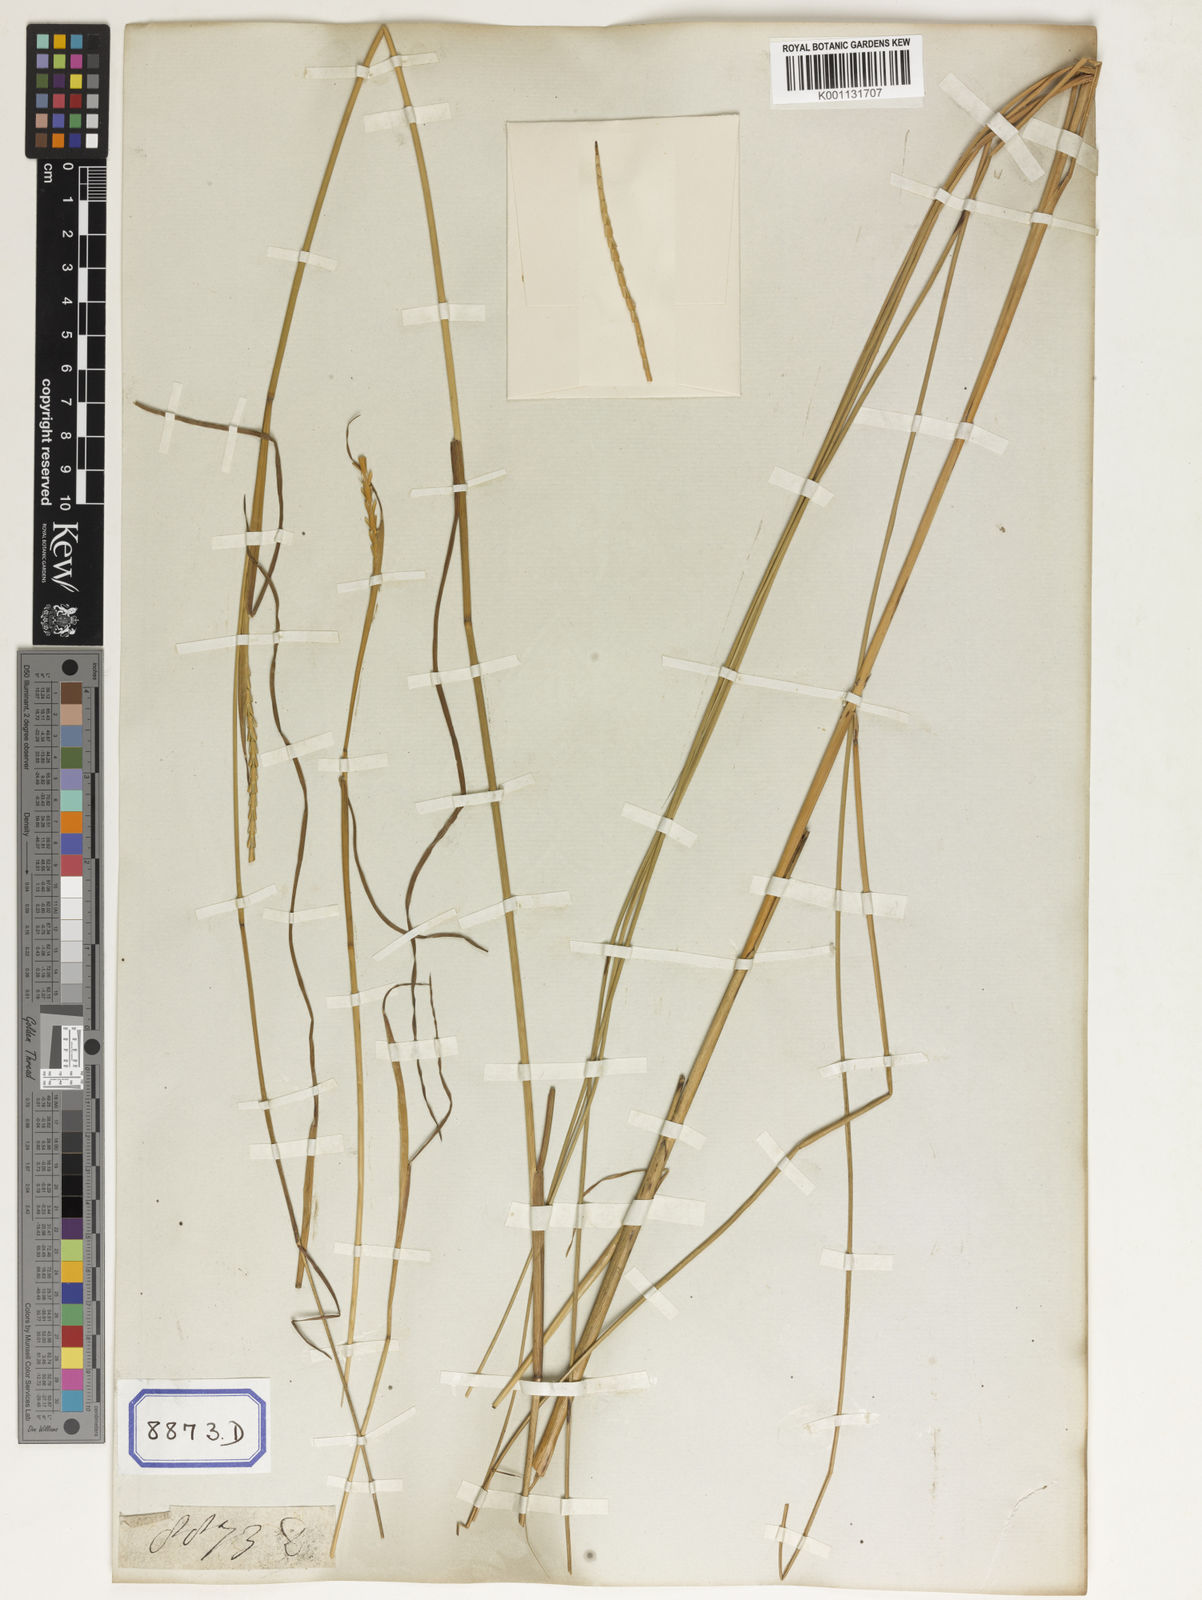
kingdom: Plantae
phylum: Tracheophyta
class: Liliopsida
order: Poales
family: Poaceae
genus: Mnesithea
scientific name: Mnesithea laevis
